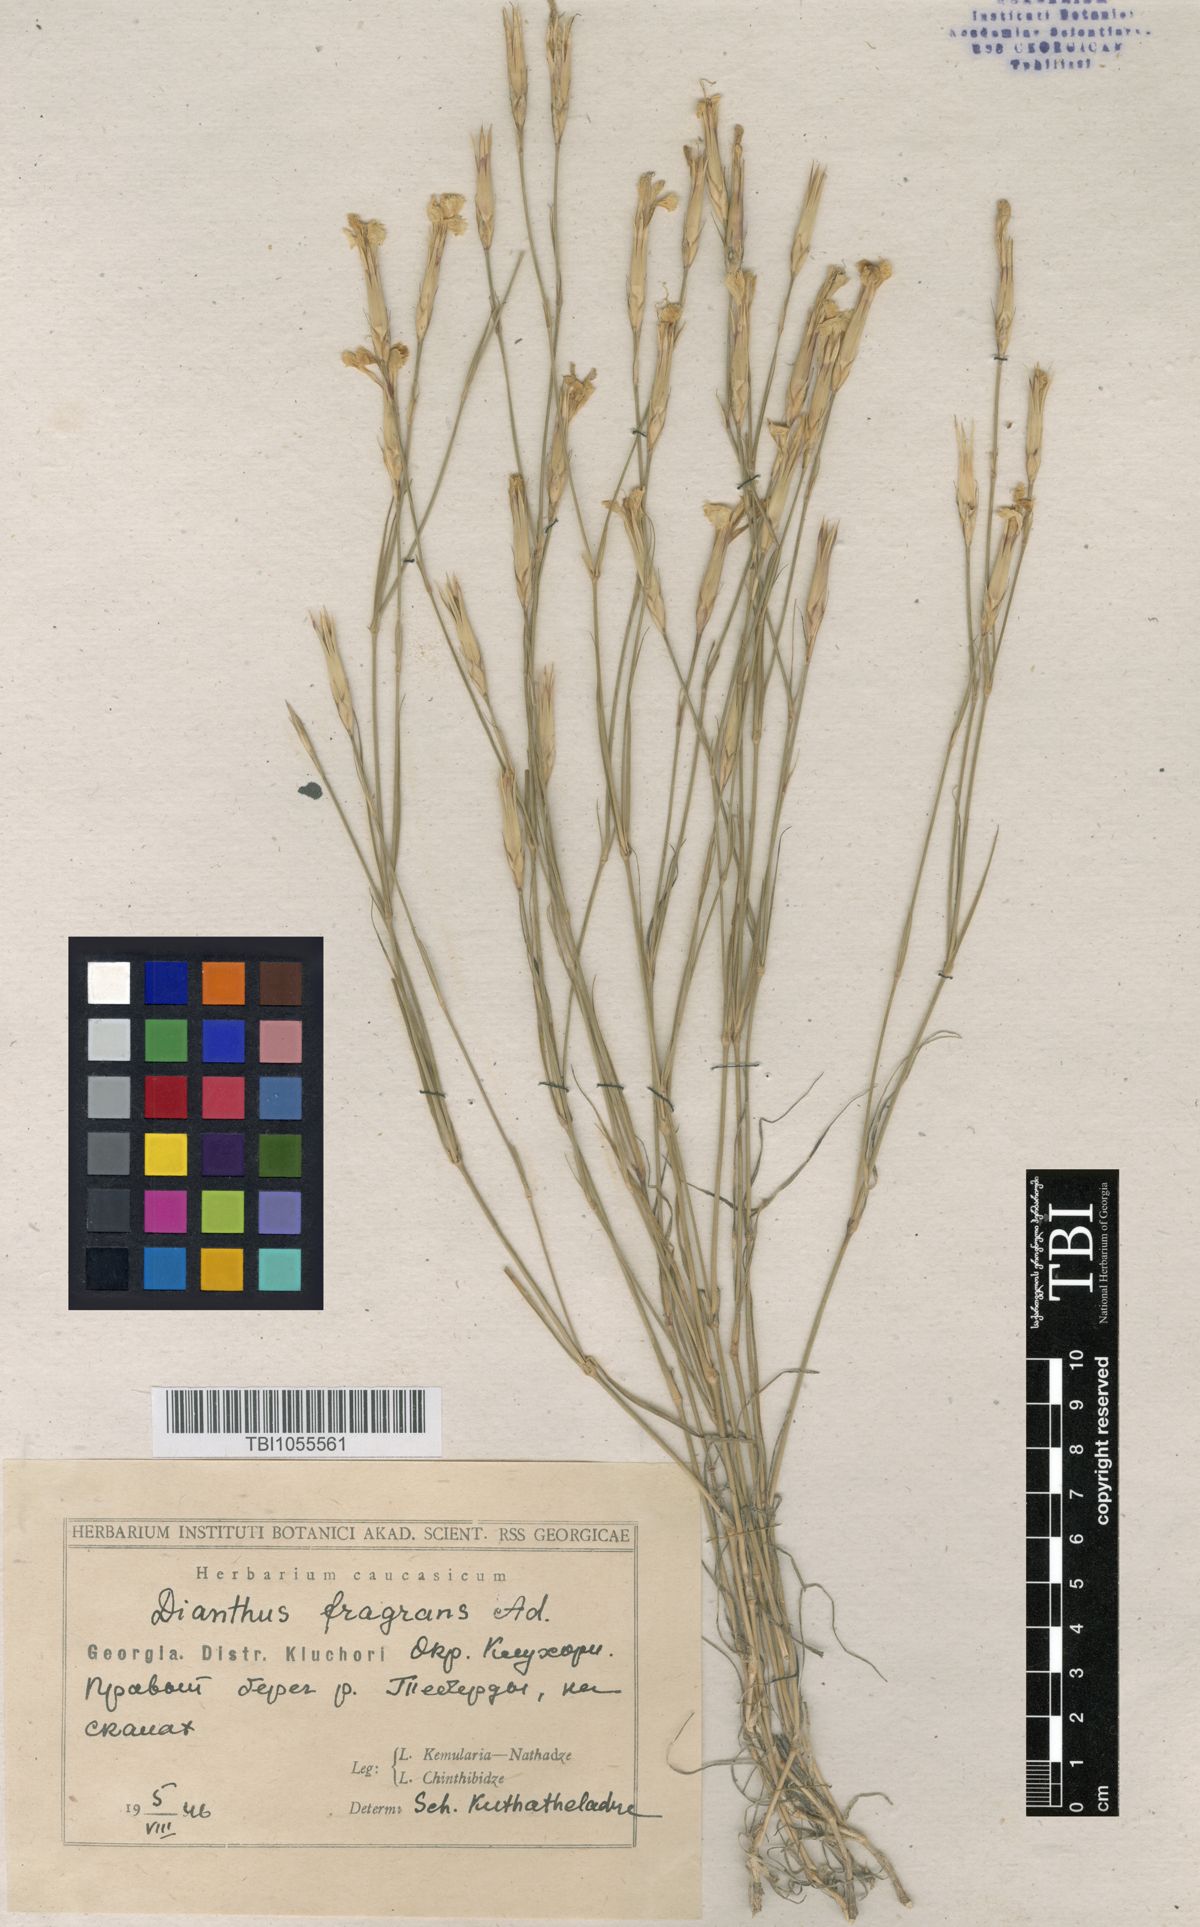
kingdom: Plantae
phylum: Tracheophyta
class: Magnoliopsida
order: Caryophyllales
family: Caryophyllaceae
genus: Dianthus
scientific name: Dianthus
